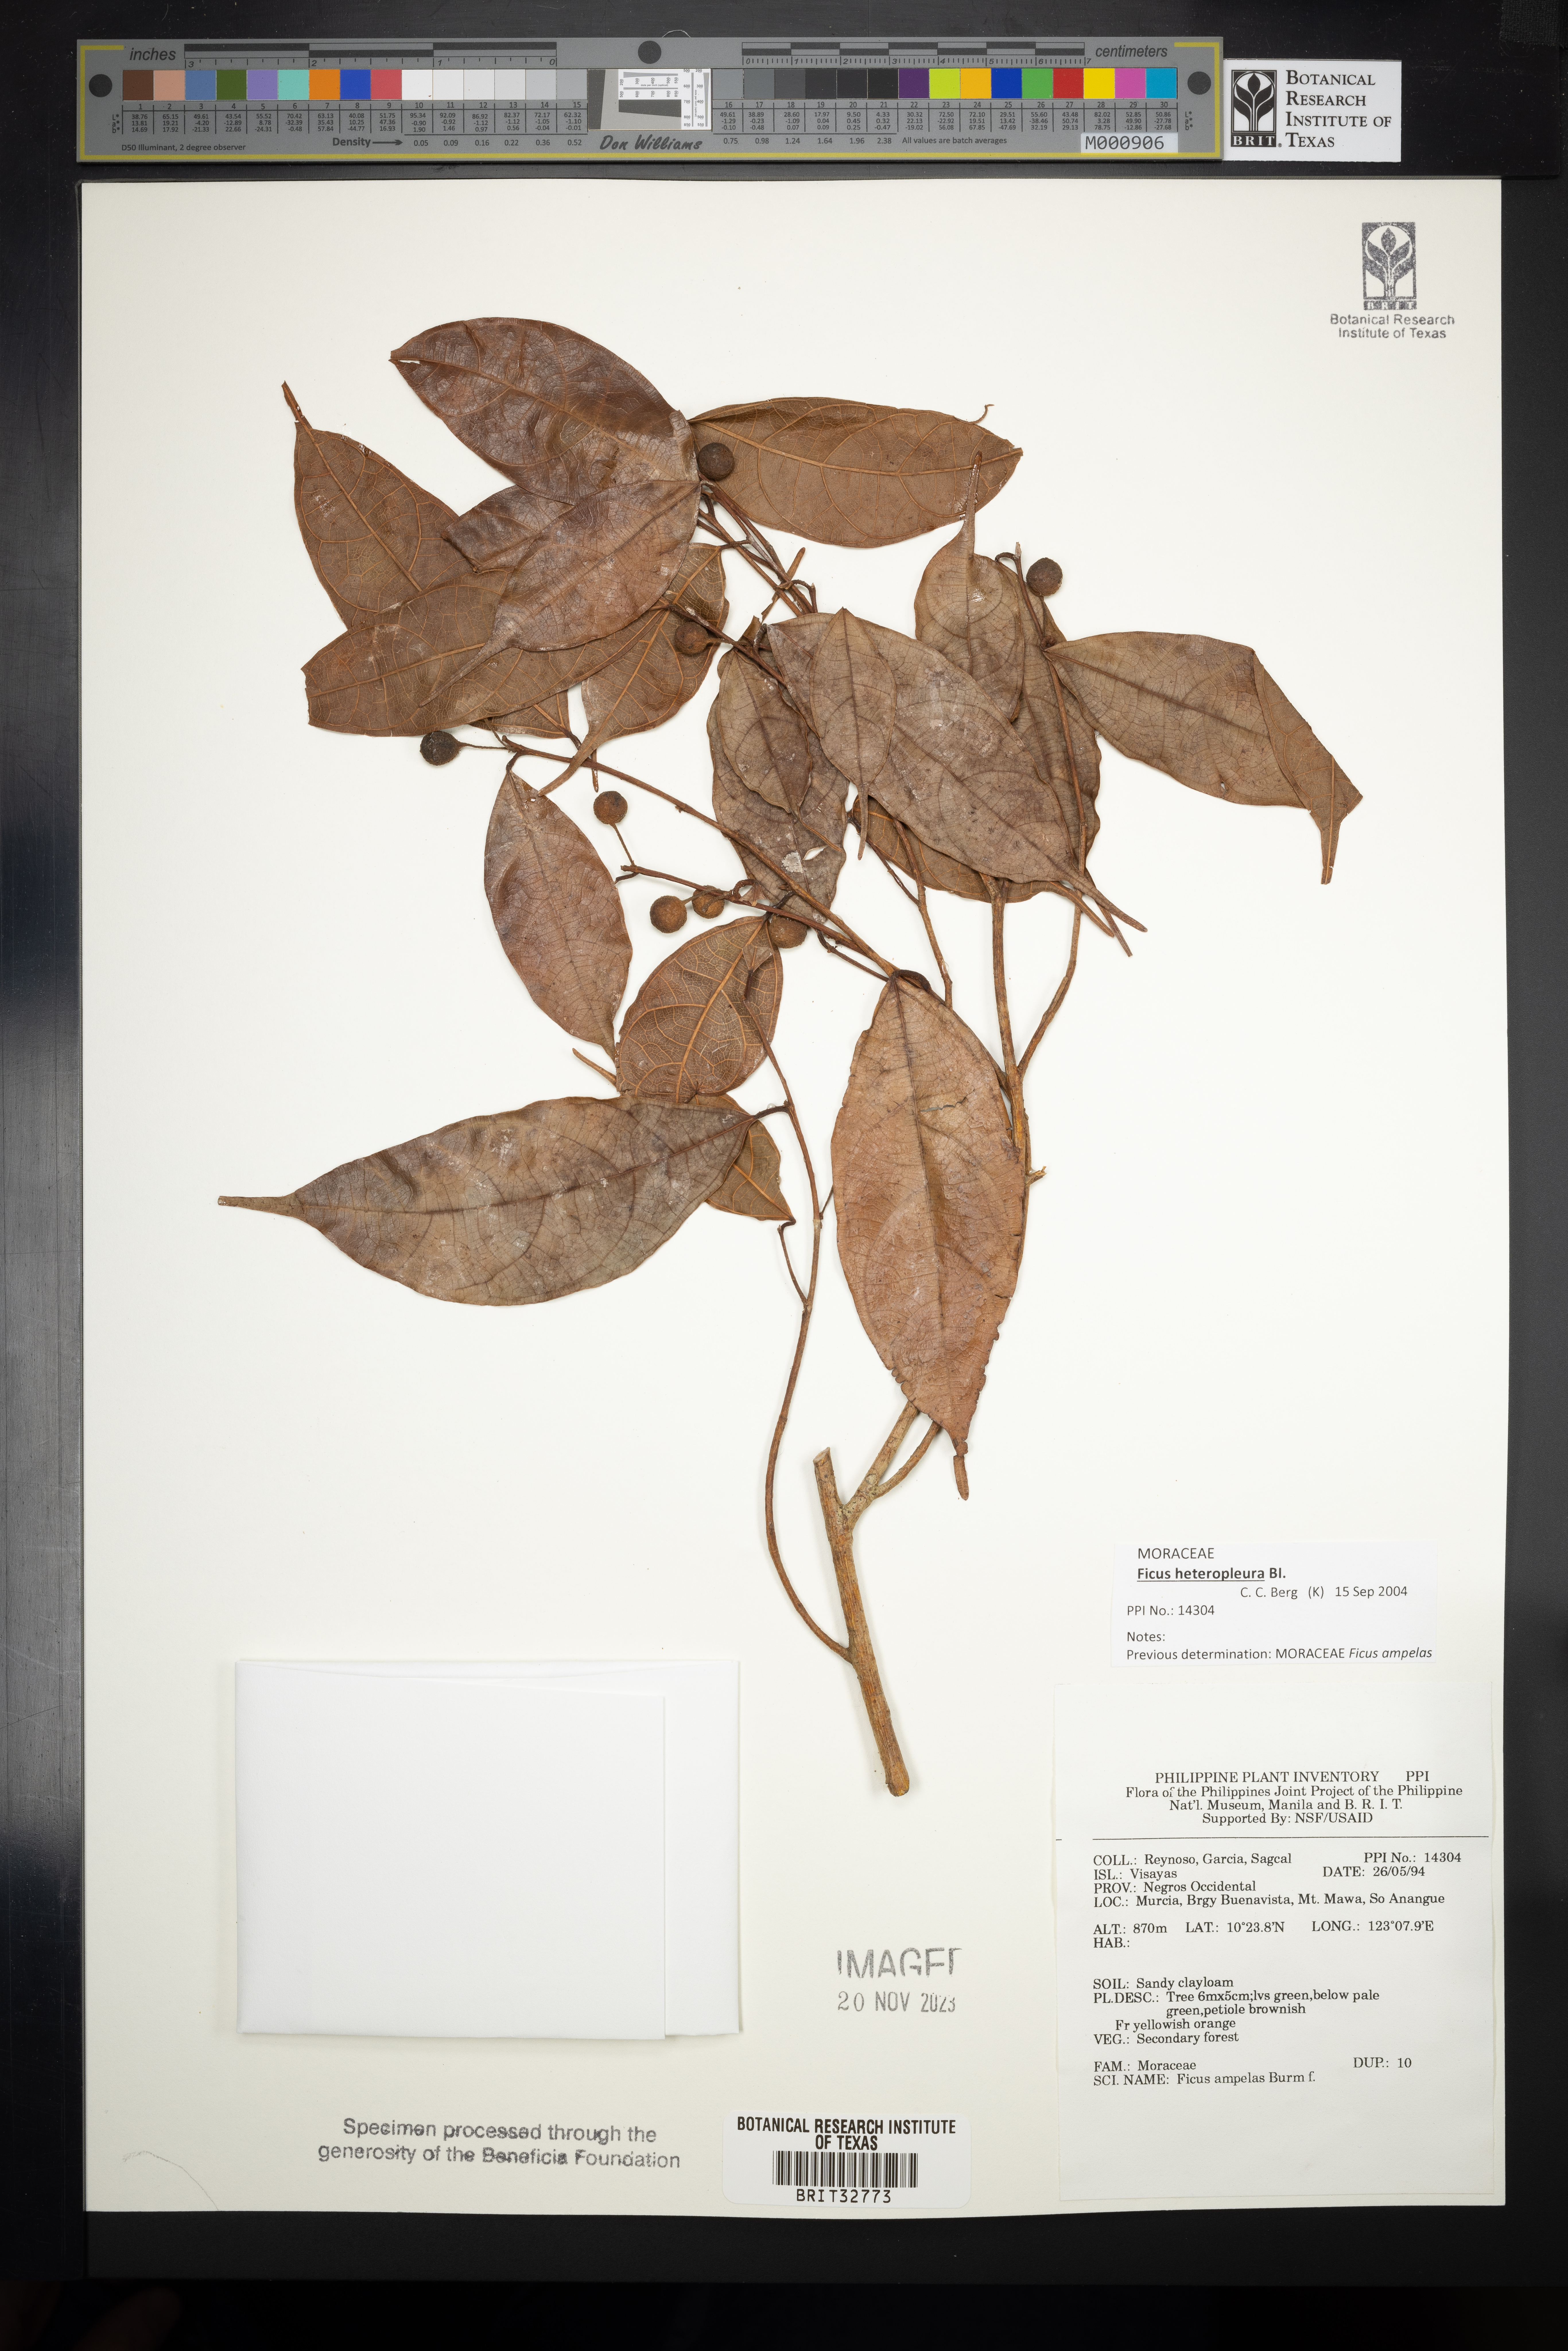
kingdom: Plantae
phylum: Tracheophyta
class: Magnoliopsida
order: Rosales
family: Moraceae
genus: Ficus
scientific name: Ficus ampelos
